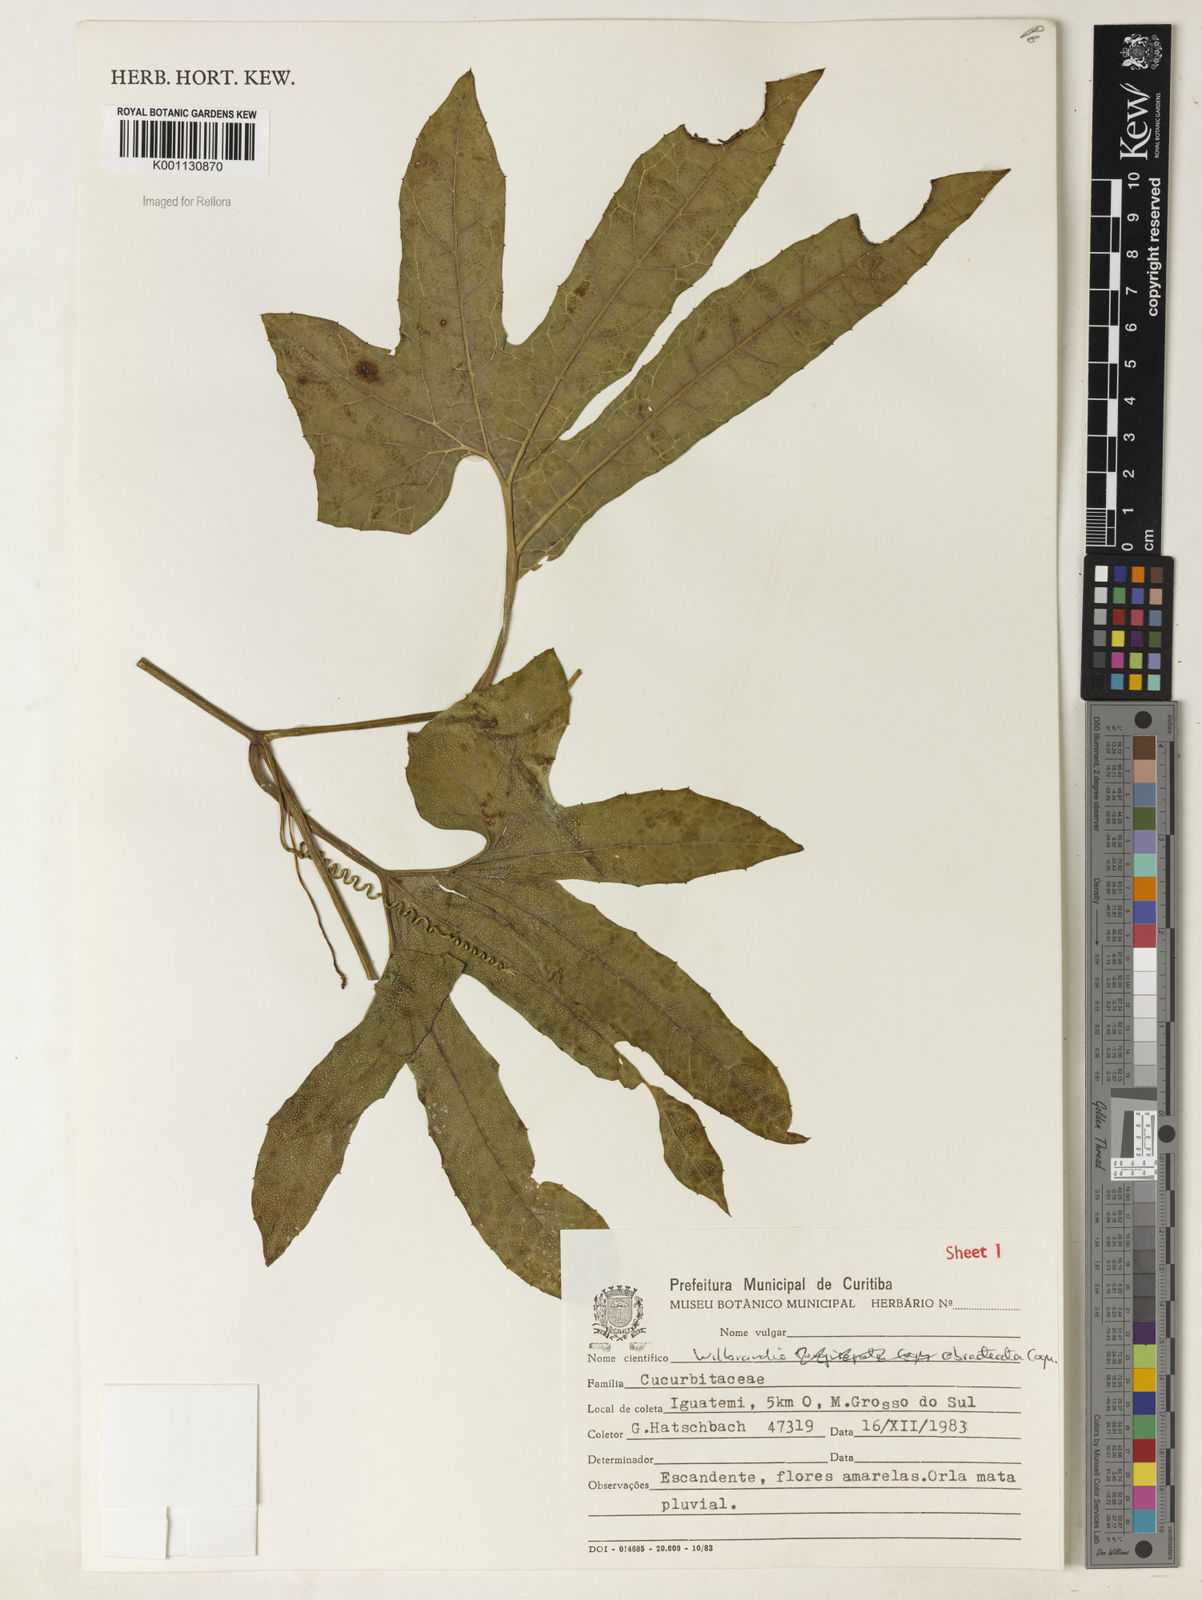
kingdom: Plantae
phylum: Tracheophyta
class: Magnoliopsida
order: Cucurbitales
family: Cucurbitaceae
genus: Wilbrandia
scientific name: Wilbrandia ebracteata
